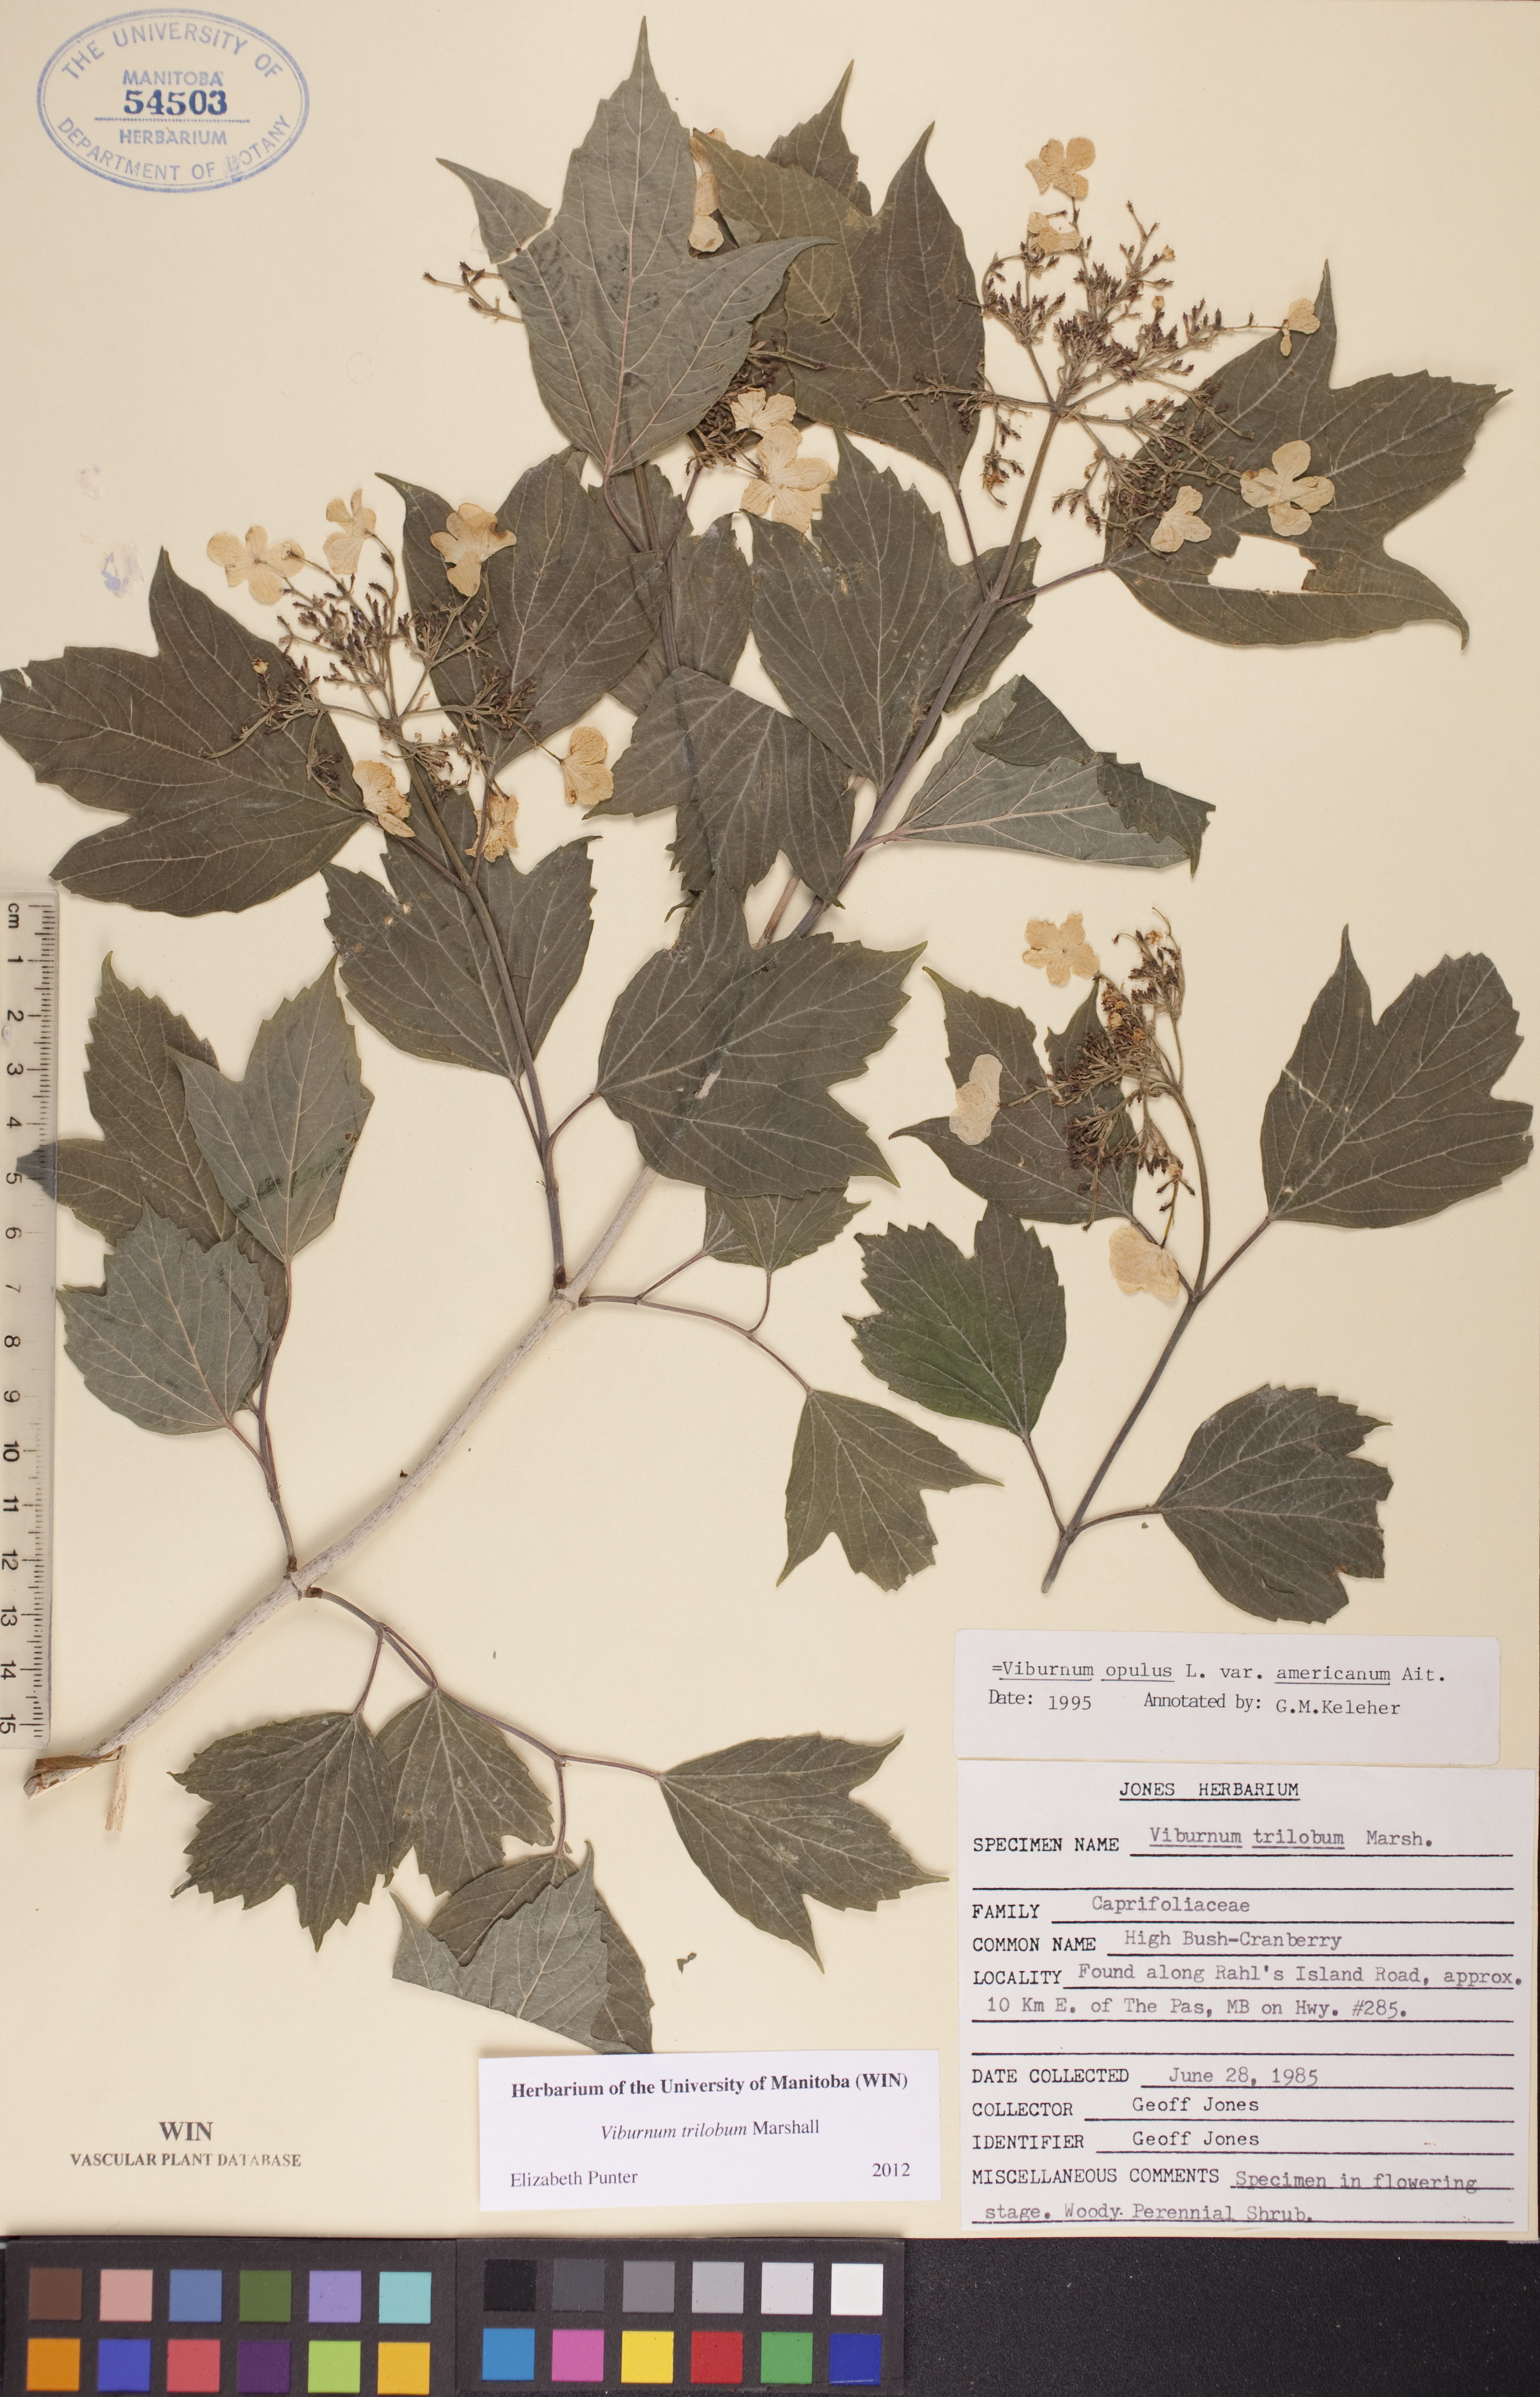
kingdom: Plantae
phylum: Tracheophyta
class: Magnoliopsida
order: Dipsacales
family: Viburnaceae
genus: Viburnum
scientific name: Viburnum trilobum
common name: American cranberrybush
